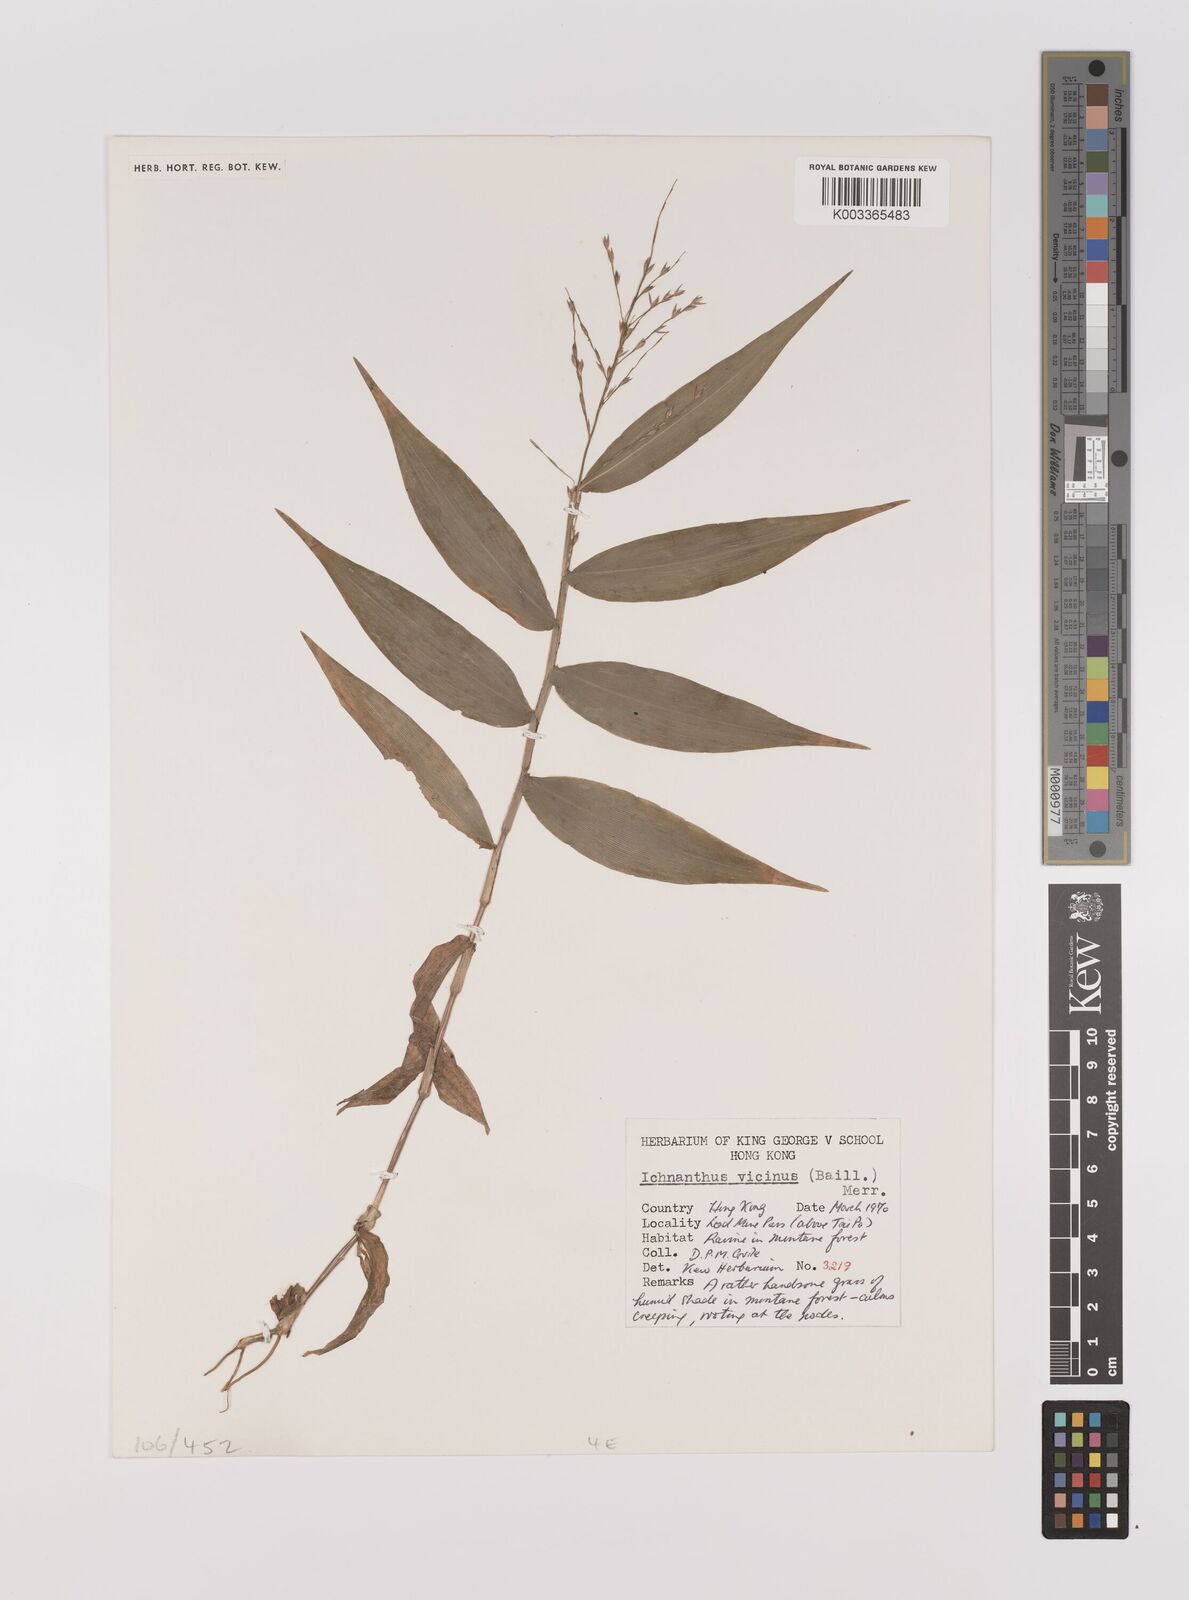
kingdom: Plantae
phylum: Tracheophyta
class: Liliopsida
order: Poales
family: Poaceae
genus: Ichnanthus
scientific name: Ichnanthus pallens
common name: Water grass
